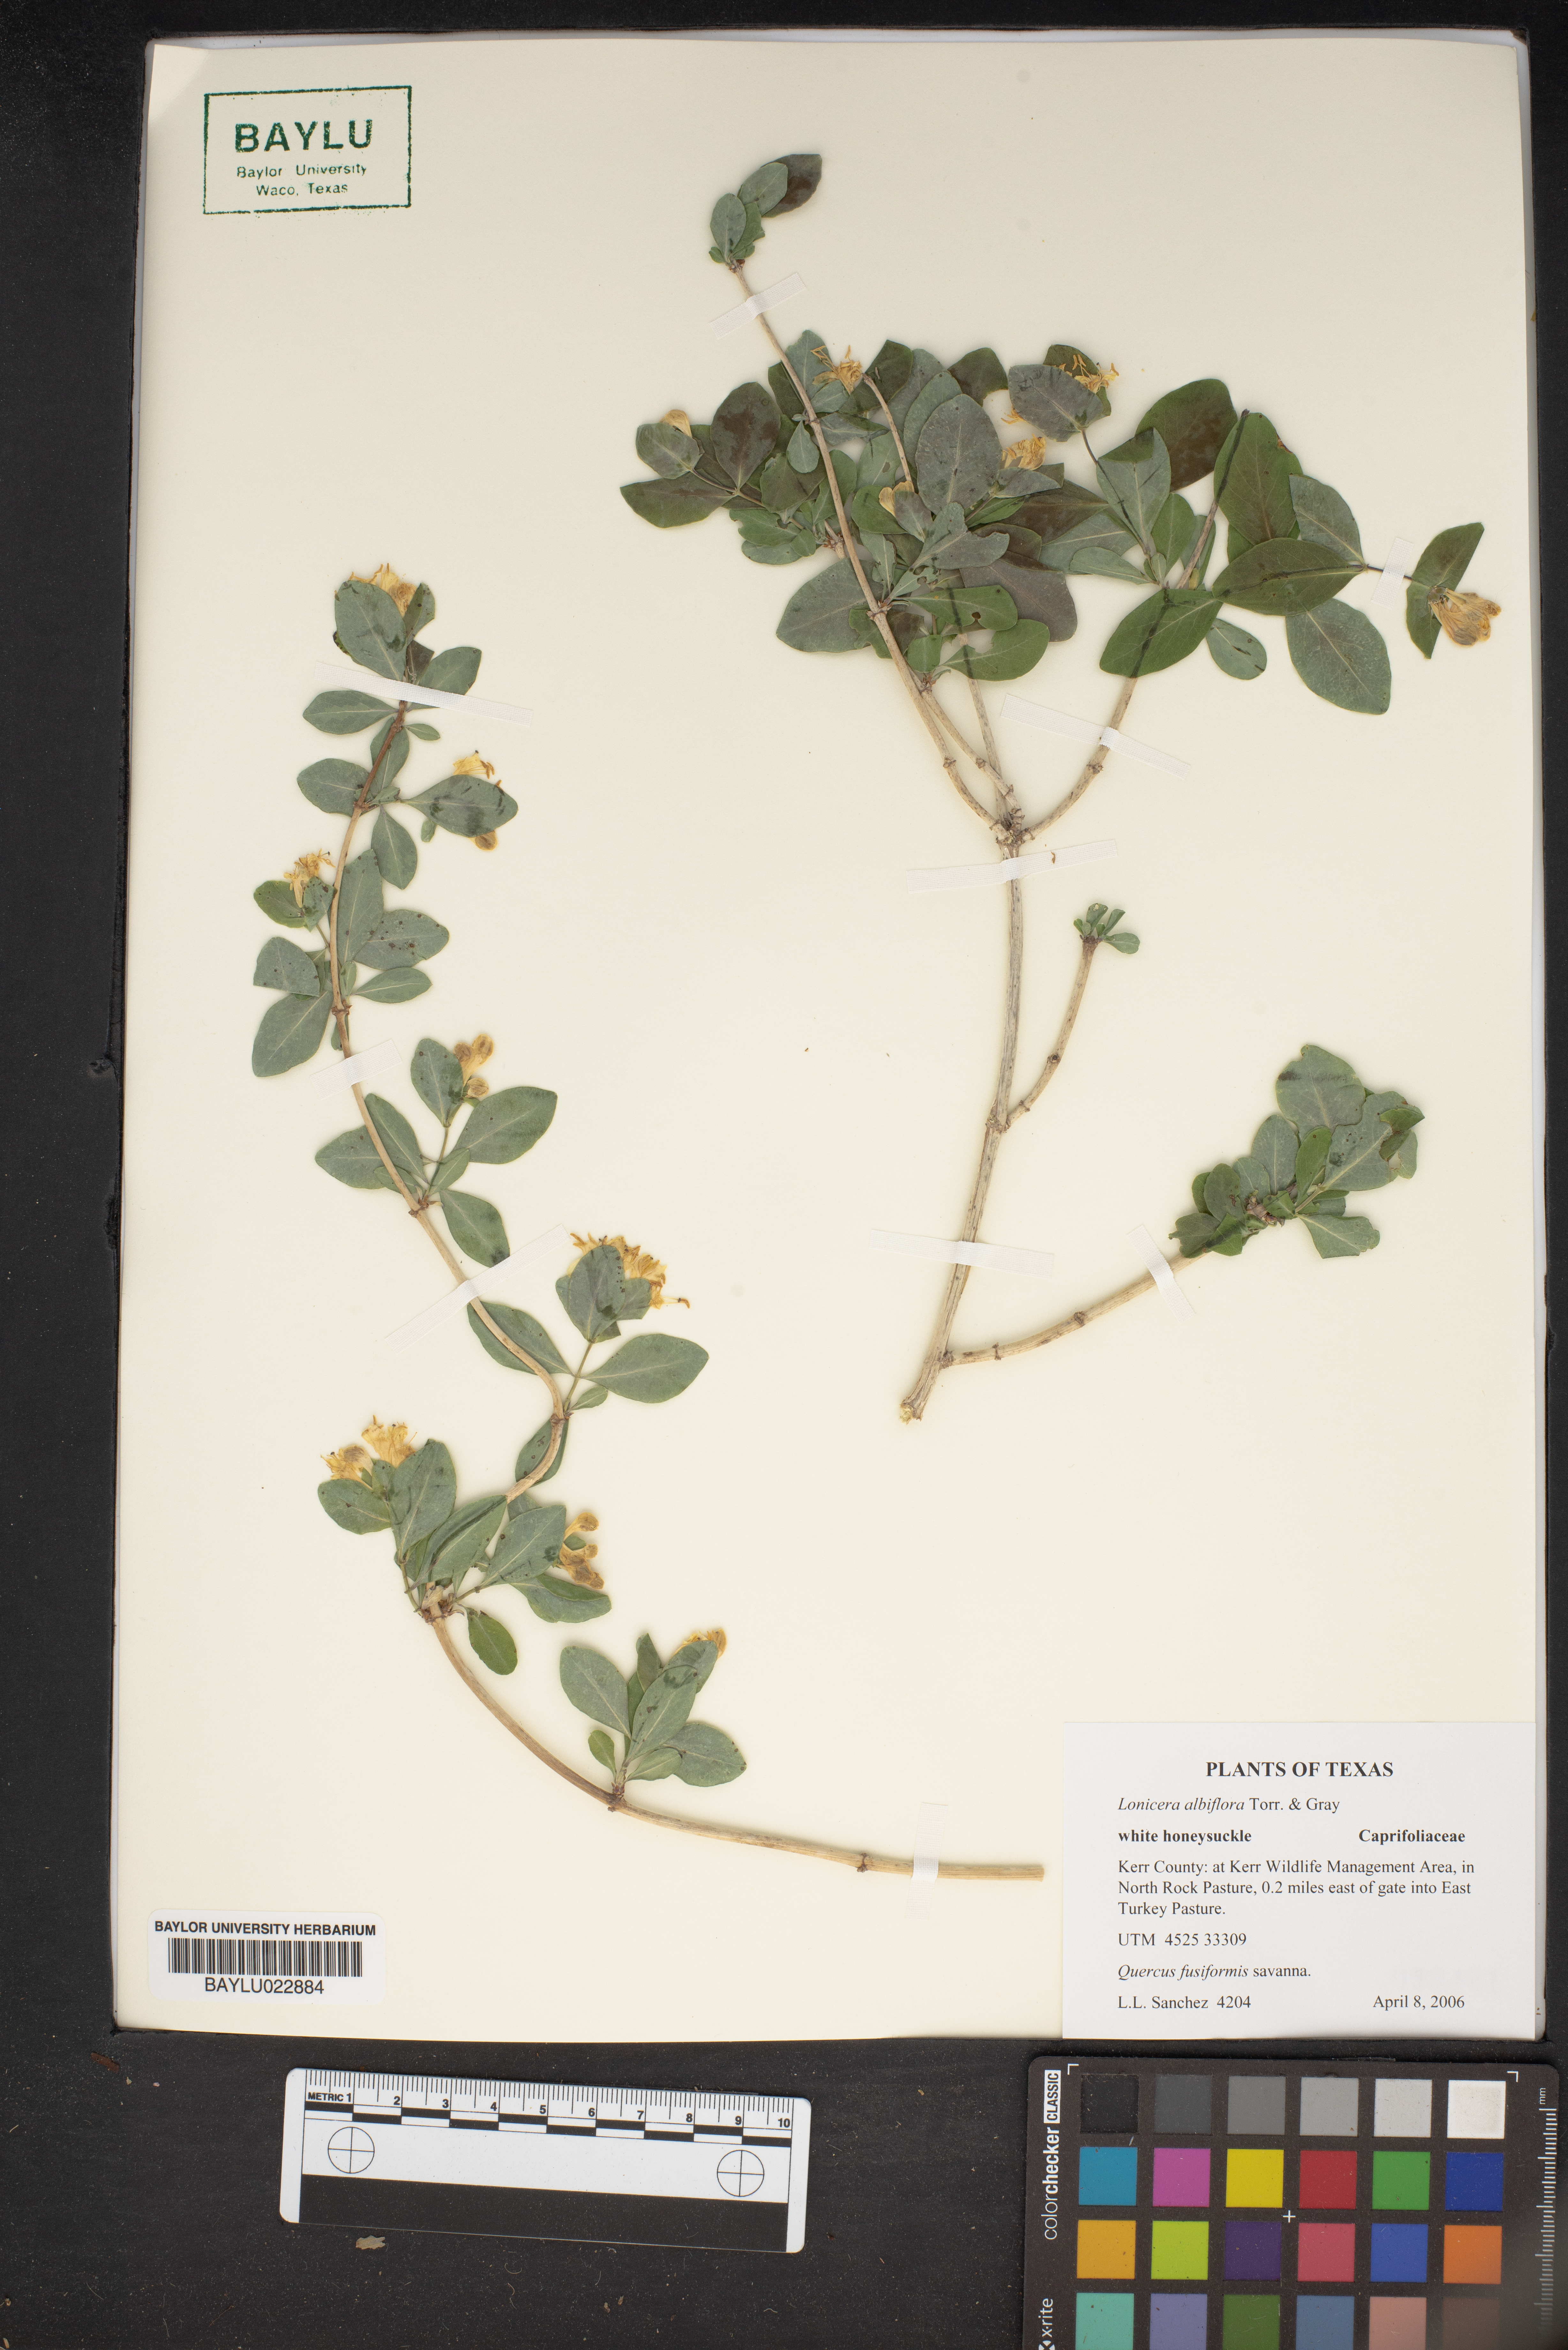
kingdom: Plantae
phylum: Tracheophyta
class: Magnoliopsida
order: Dipsacales
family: Caprifoliaceae
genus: Lonicera
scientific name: Lonicera albiflora
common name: White honeysuckle
